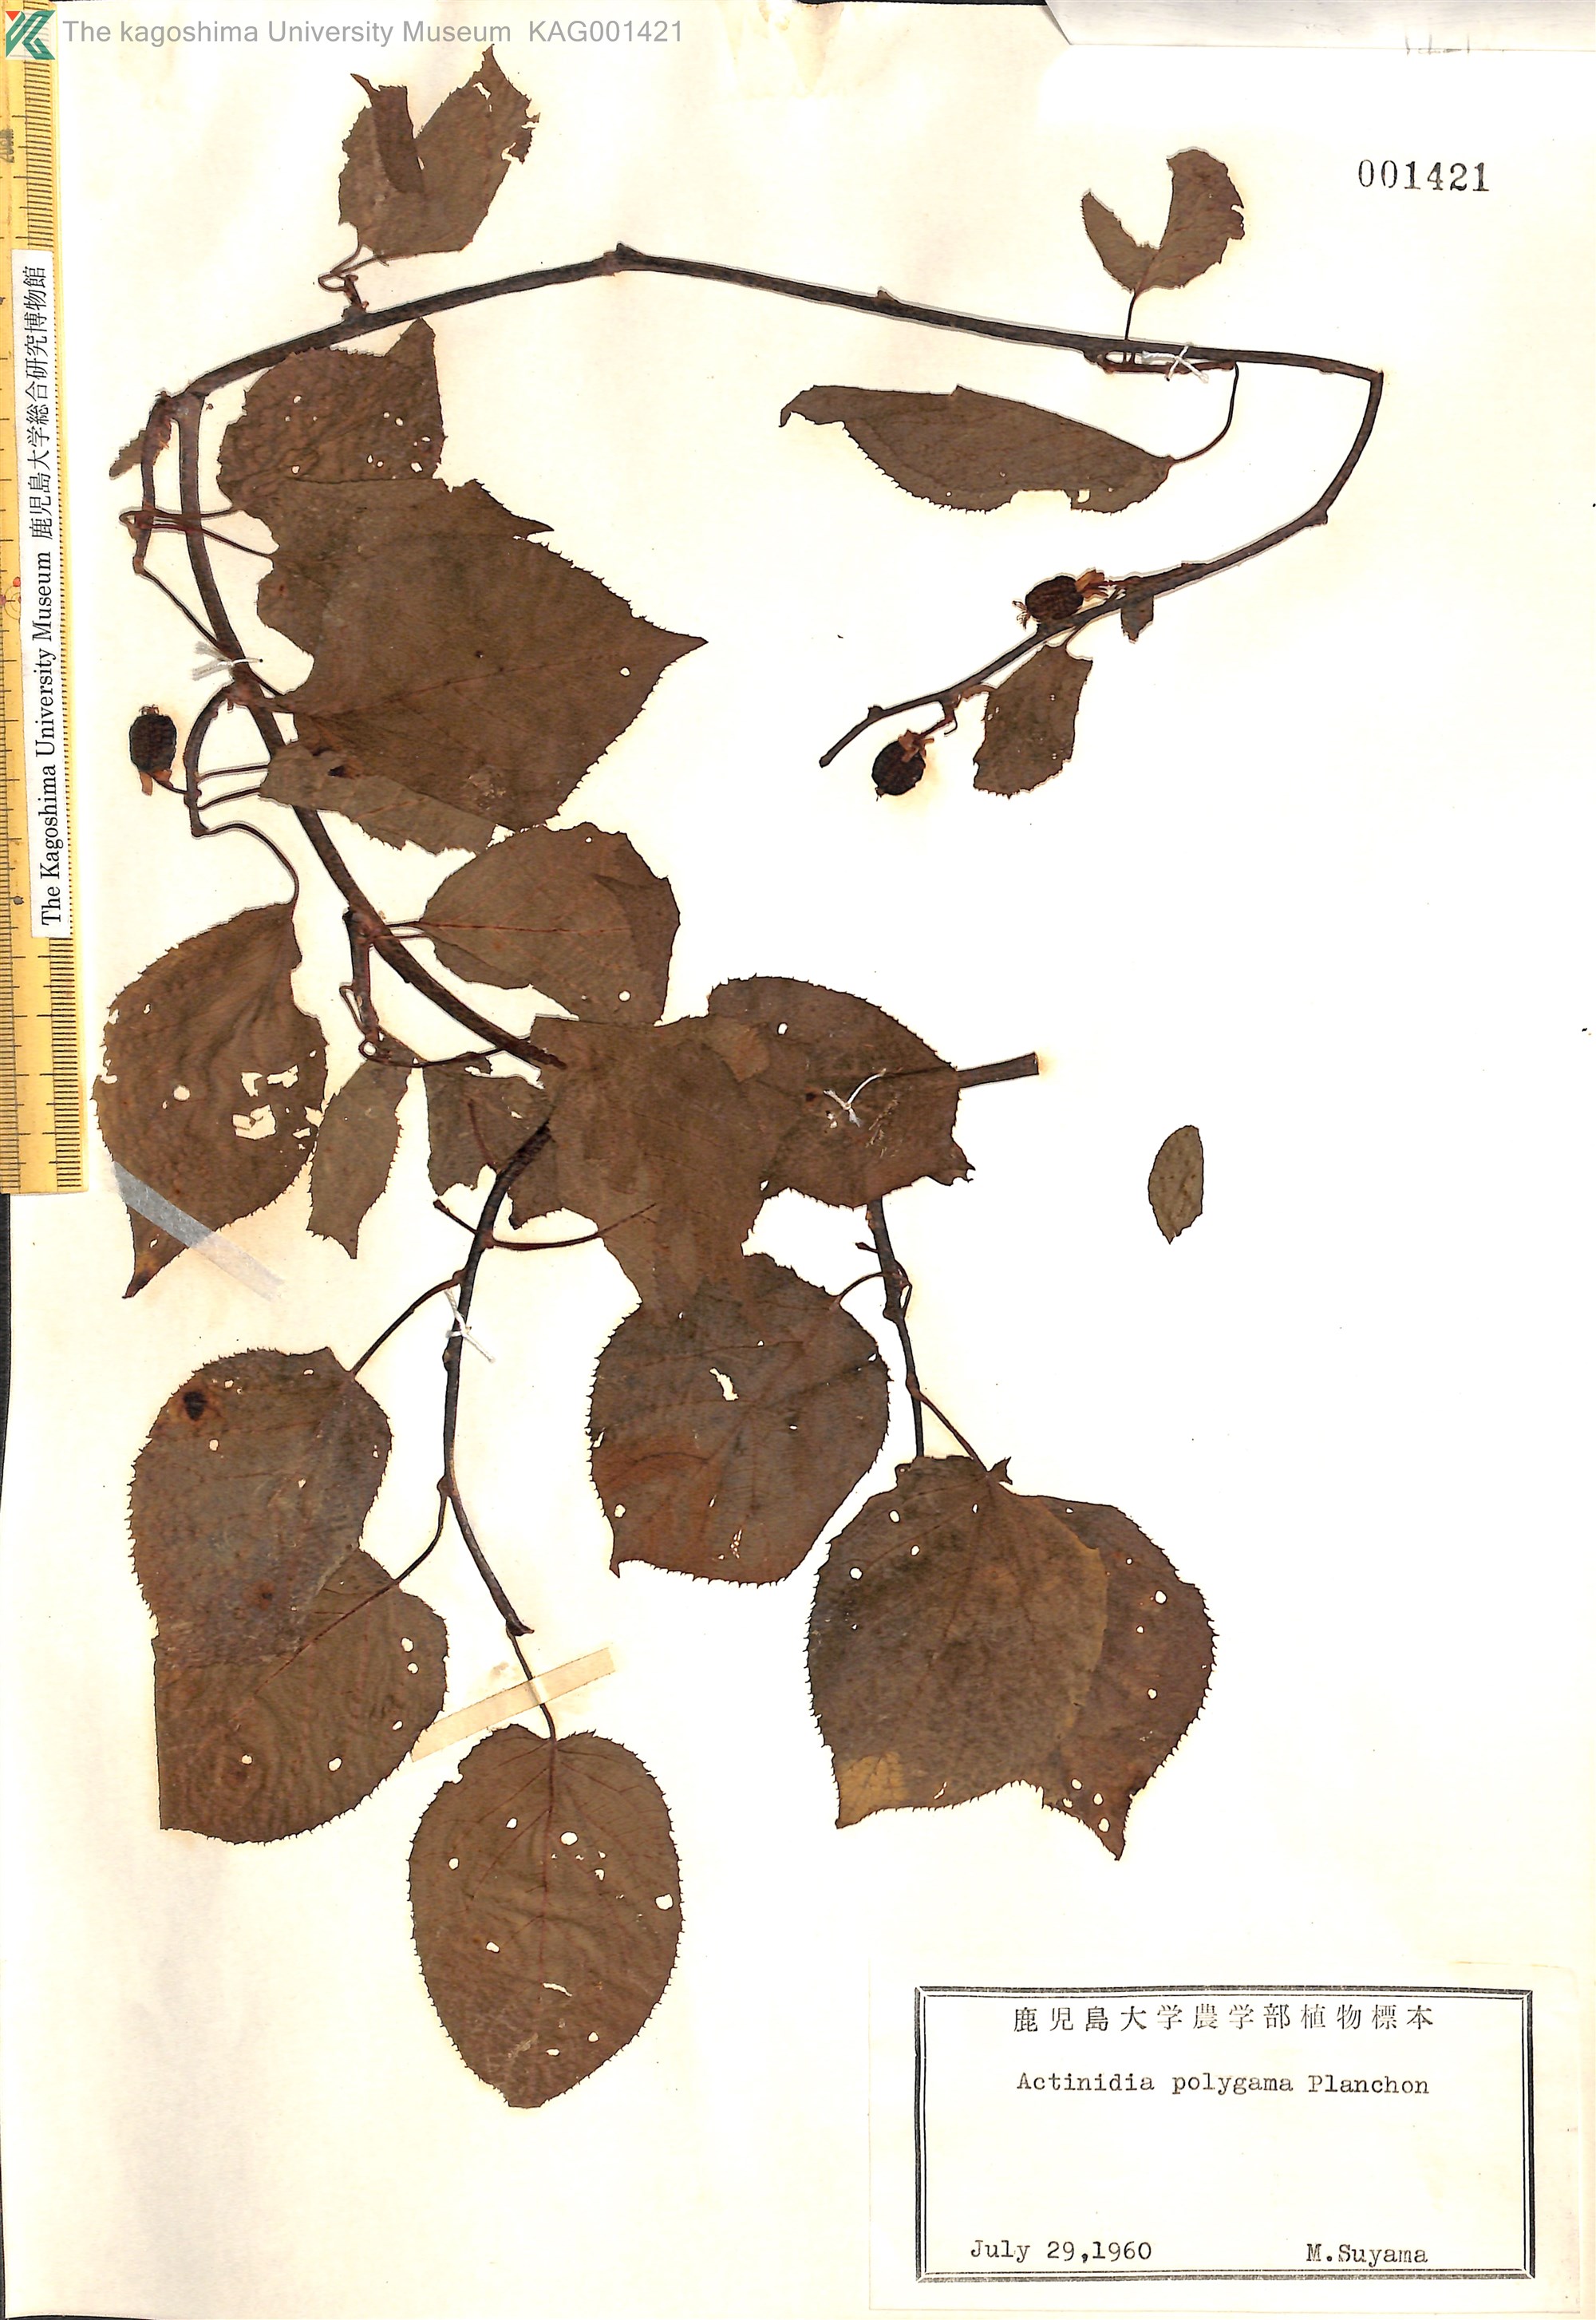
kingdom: Plantae
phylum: Tracheophyta
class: Magnoliopsida
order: Ericales
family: Actinidiaceae
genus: Actinidia
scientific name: Actinidia polygama
